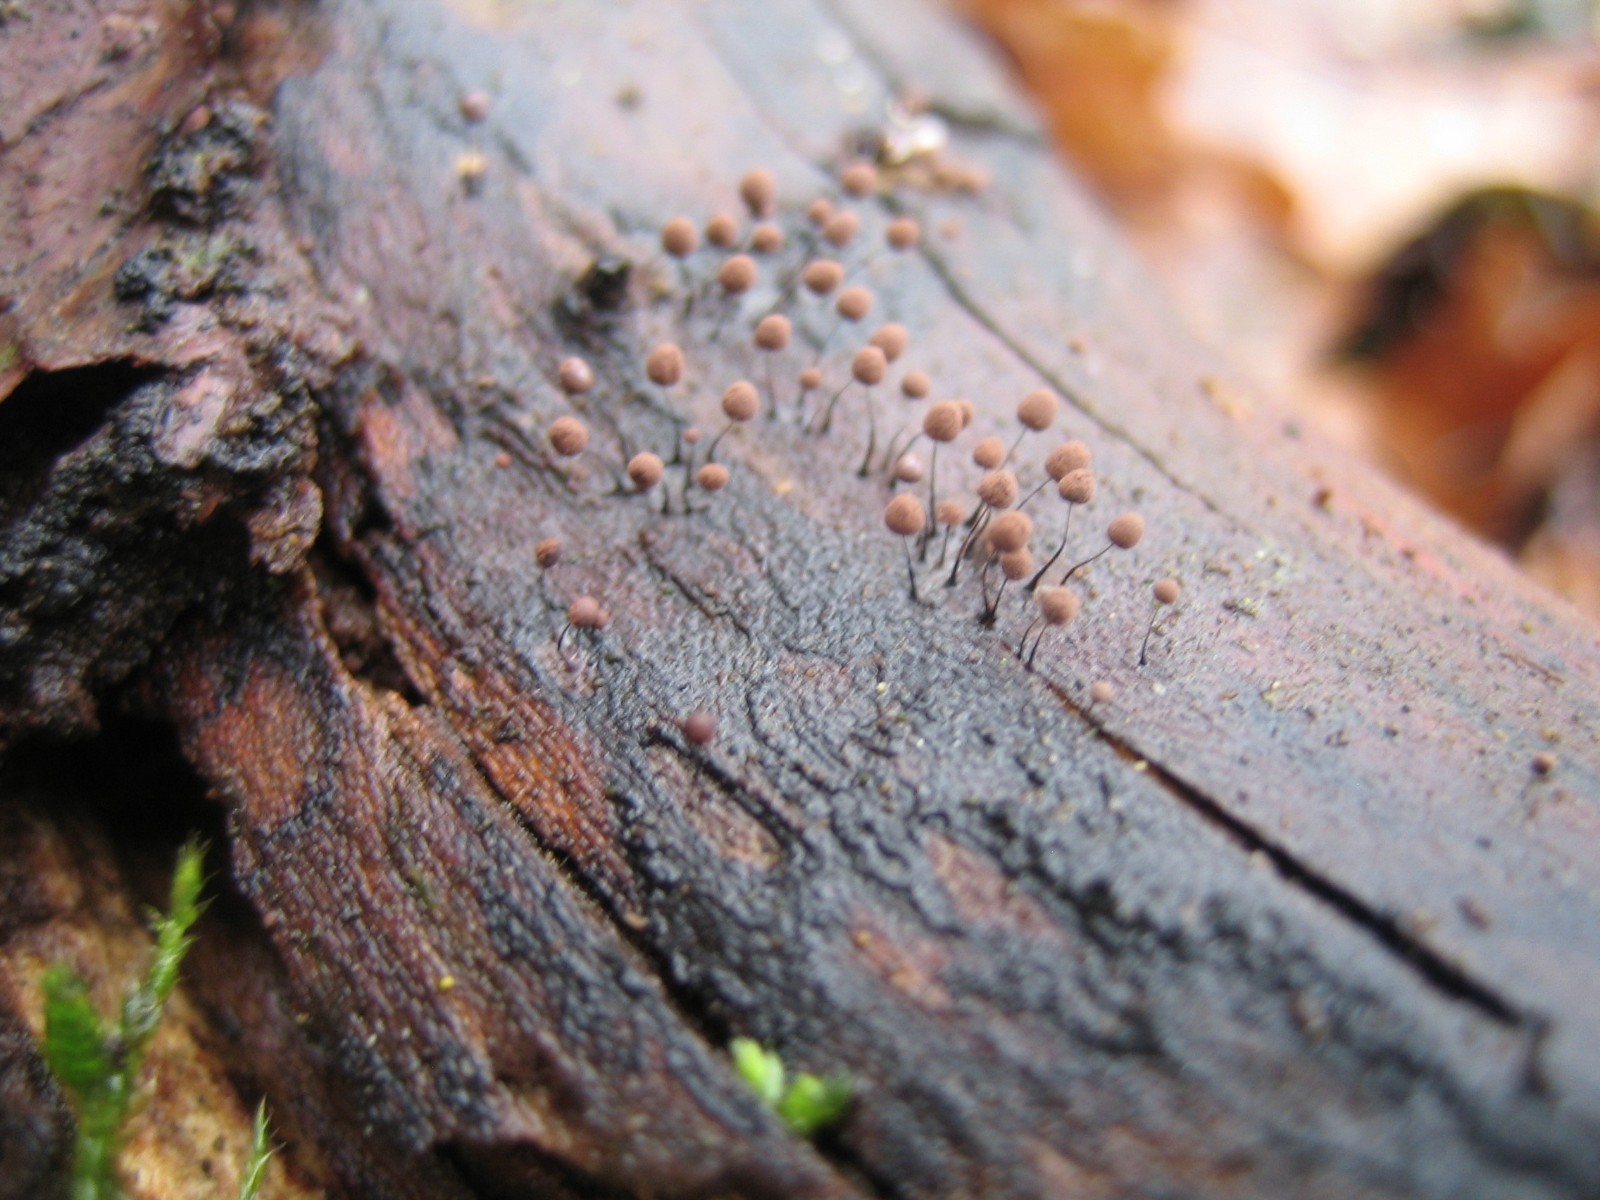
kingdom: Protozoa
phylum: Mycetozoa
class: Myxomycetes
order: Stemonitidales
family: Stemonitidaceae
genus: Comatricha
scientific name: Comatricha
